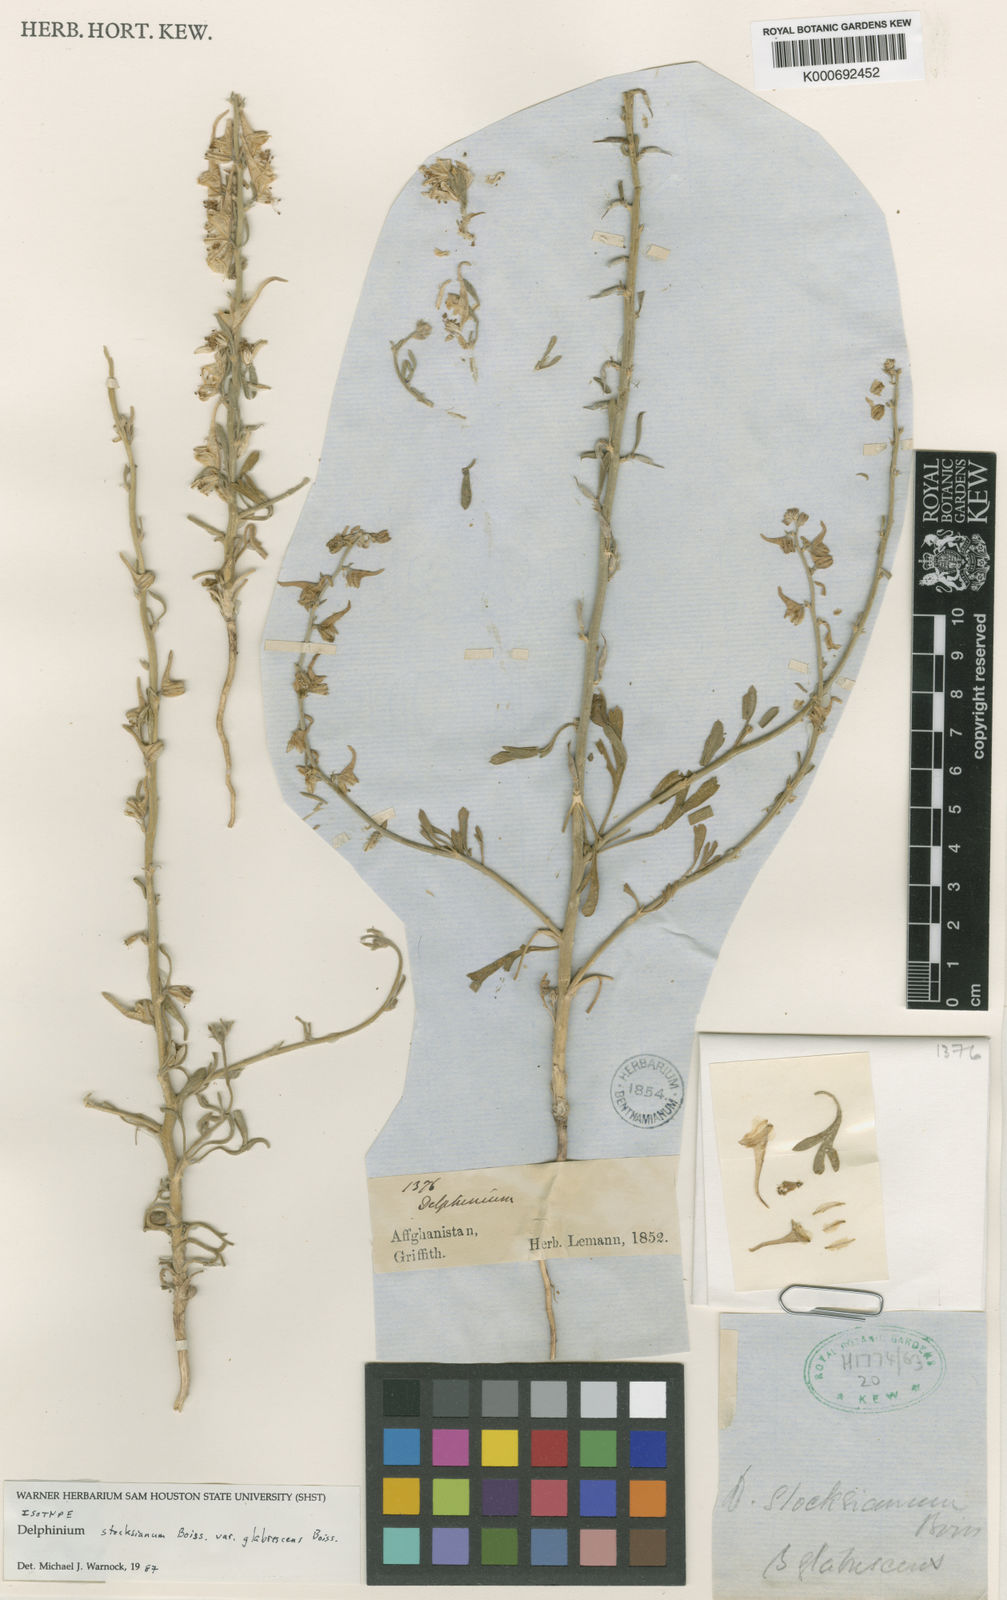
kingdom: Plantae
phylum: Tracheophyta
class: Magnoliopsida
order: Ranunculales
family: Ranunculaceae
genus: Delphinium
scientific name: Delphinium stocksianum
